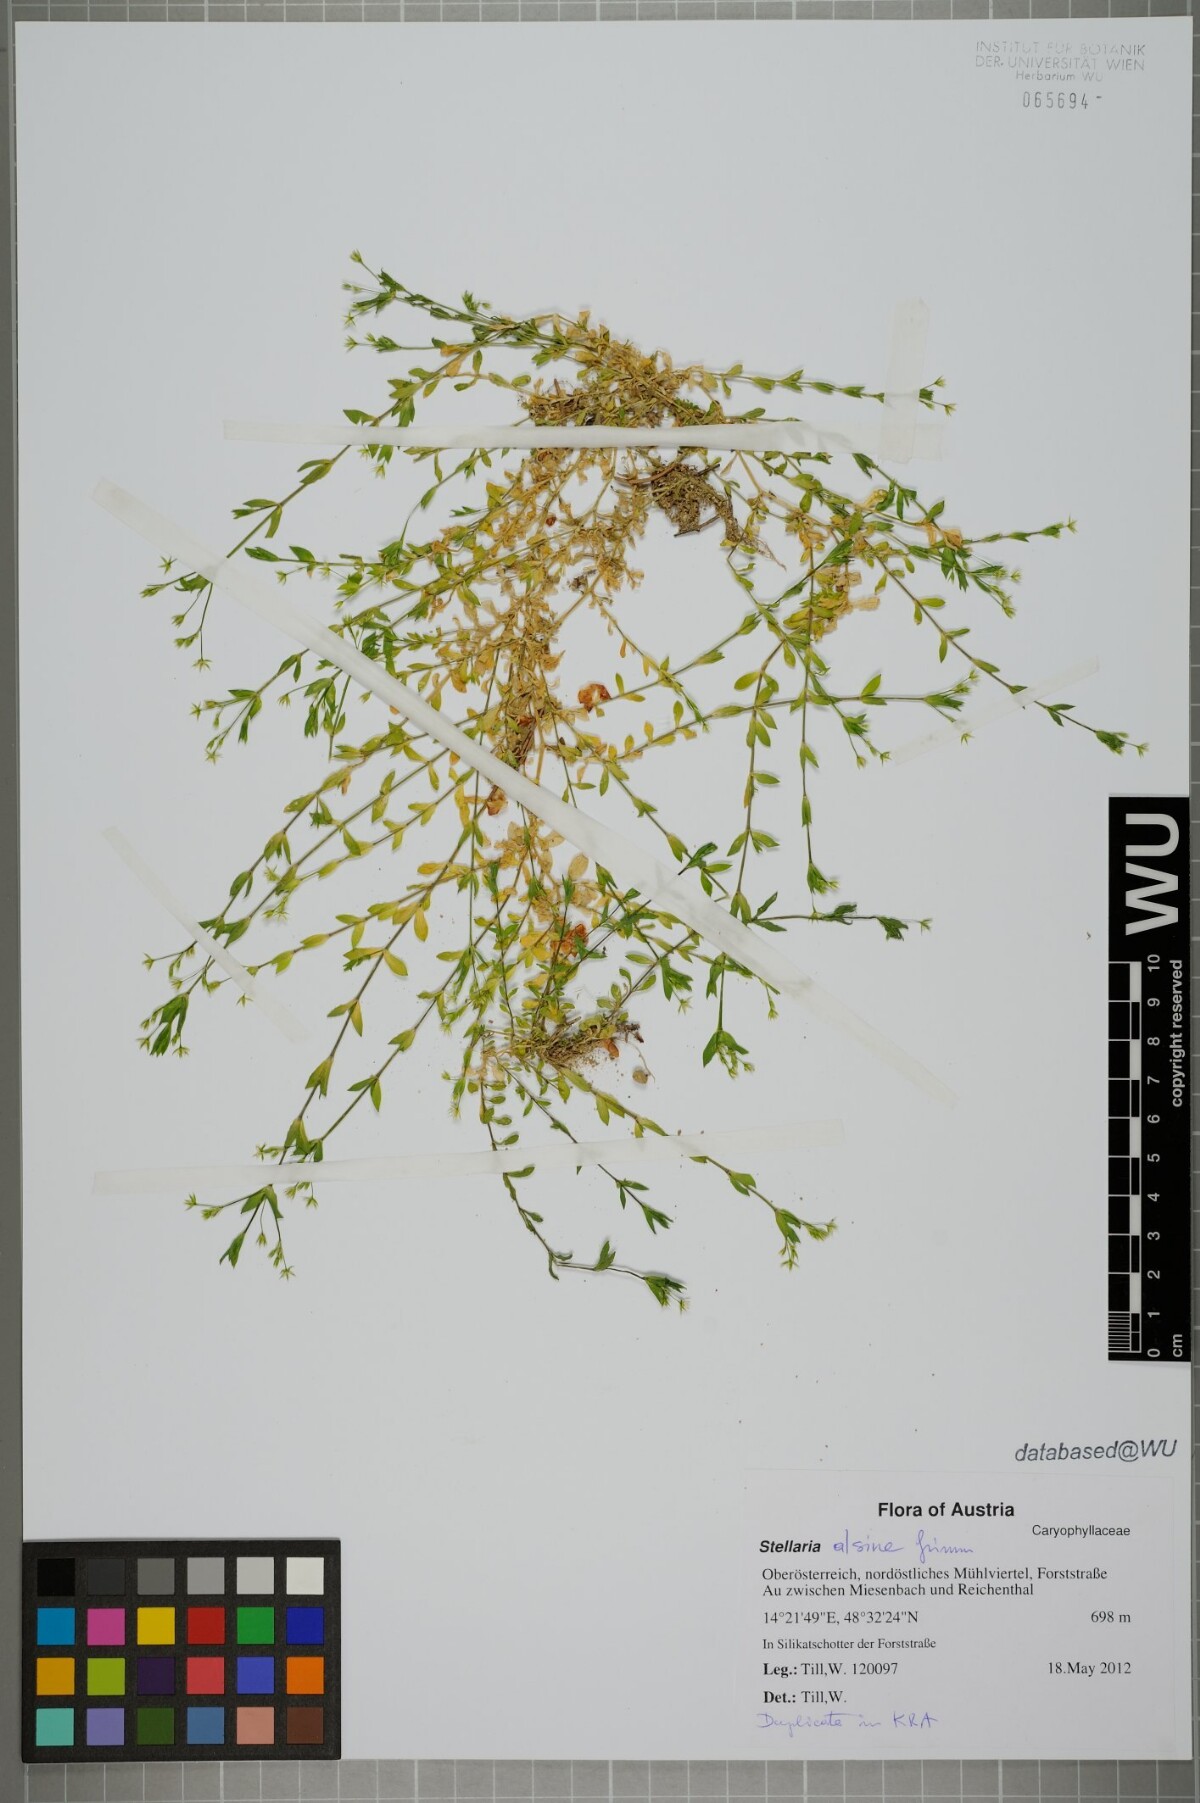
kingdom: Plantae
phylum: Tracheophyta
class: Magnoliopsida
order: Caryophyllales
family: Caryophyllaceae
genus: Stellaria
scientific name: Stellaria alsine
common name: Bog stitchwort
